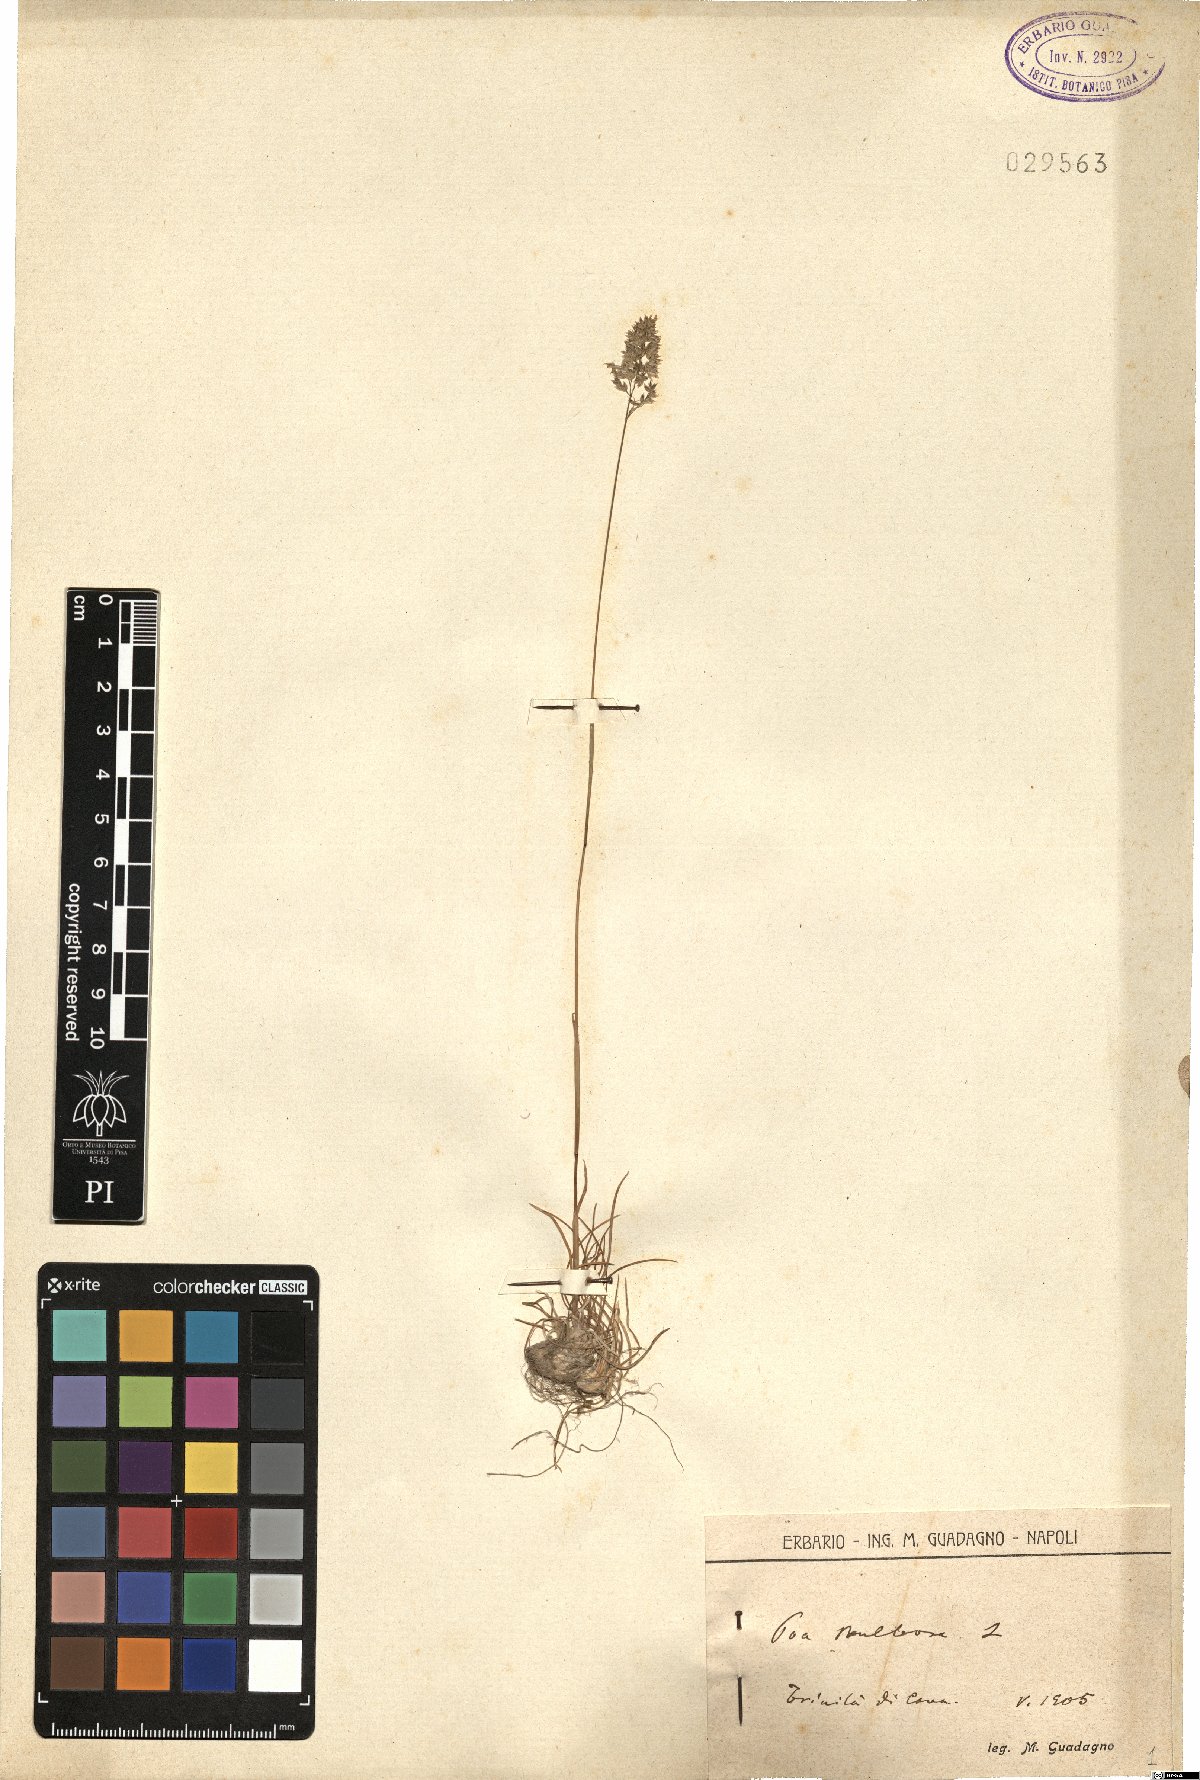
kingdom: Plantae
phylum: Tracheophyta
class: Liliopsida
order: Poales
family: Poaceae
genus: Poa
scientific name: Poa bulbosa
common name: Bulbous bluegrass
